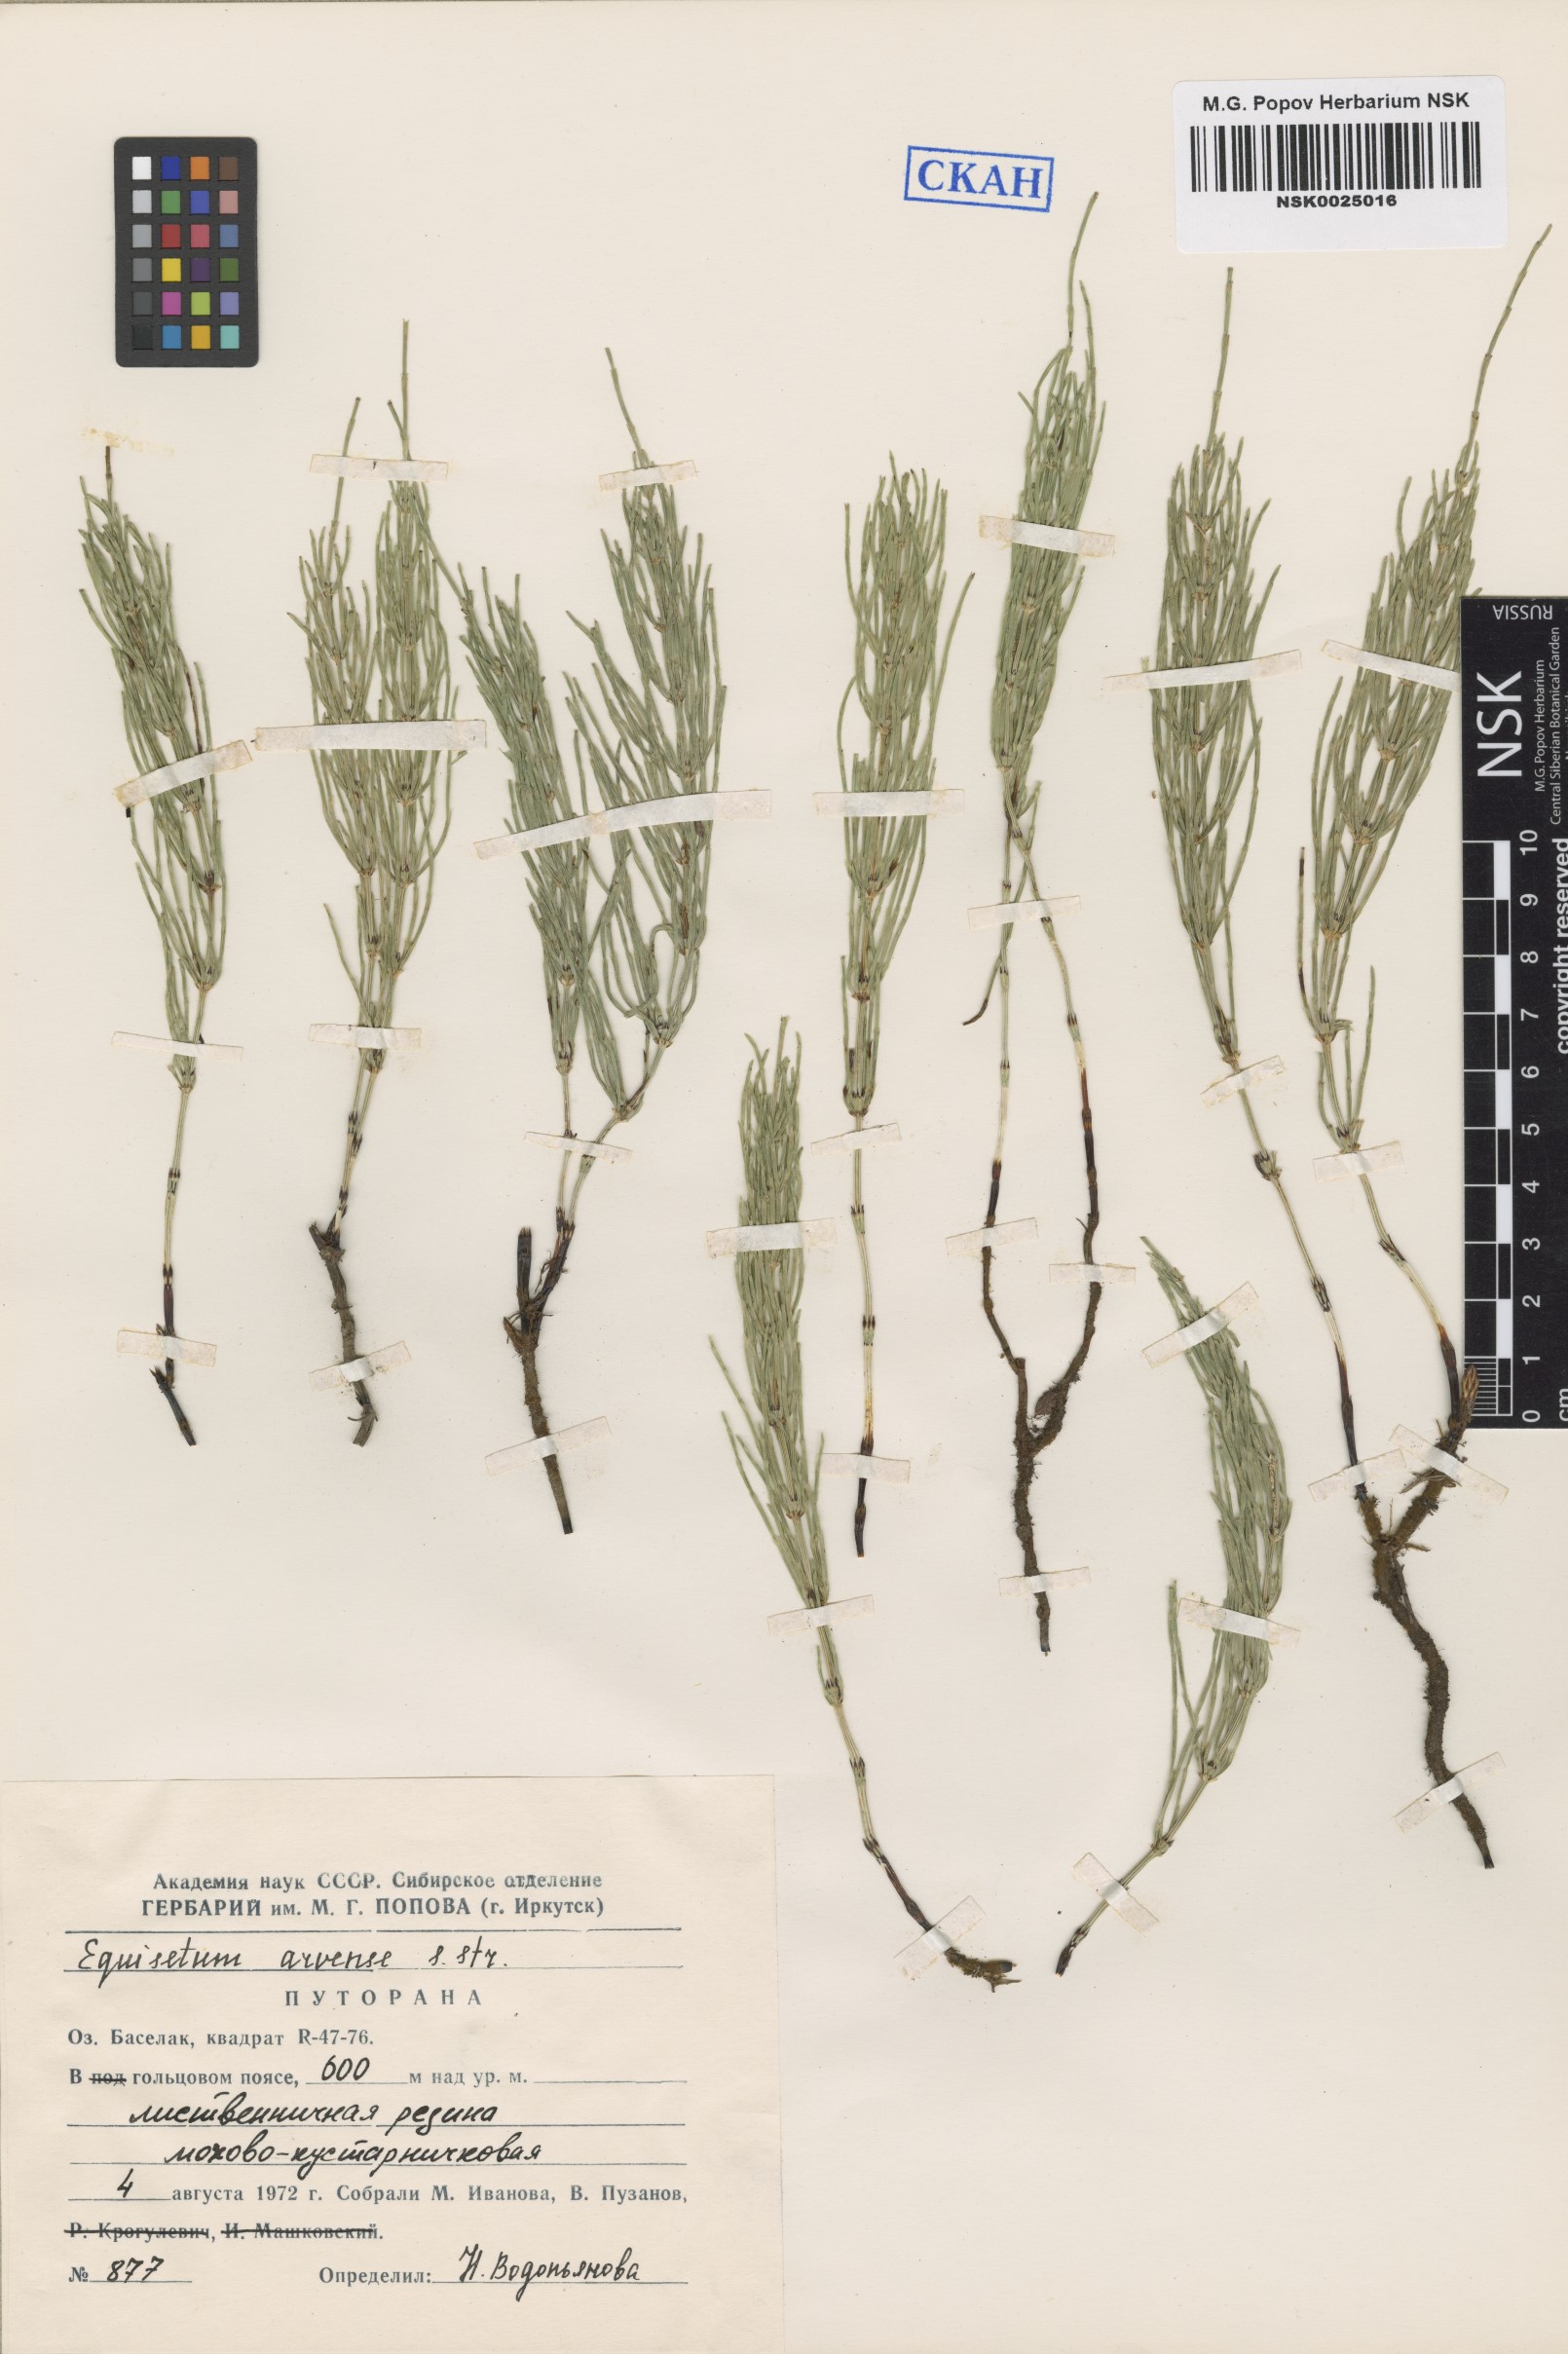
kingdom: Plantae
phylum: Tracheophyta
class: Polypodiopsida
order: Equisetales
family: Equisetaceae
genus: Equisetum
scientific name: Equisetum arvense
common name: Field horsetail
